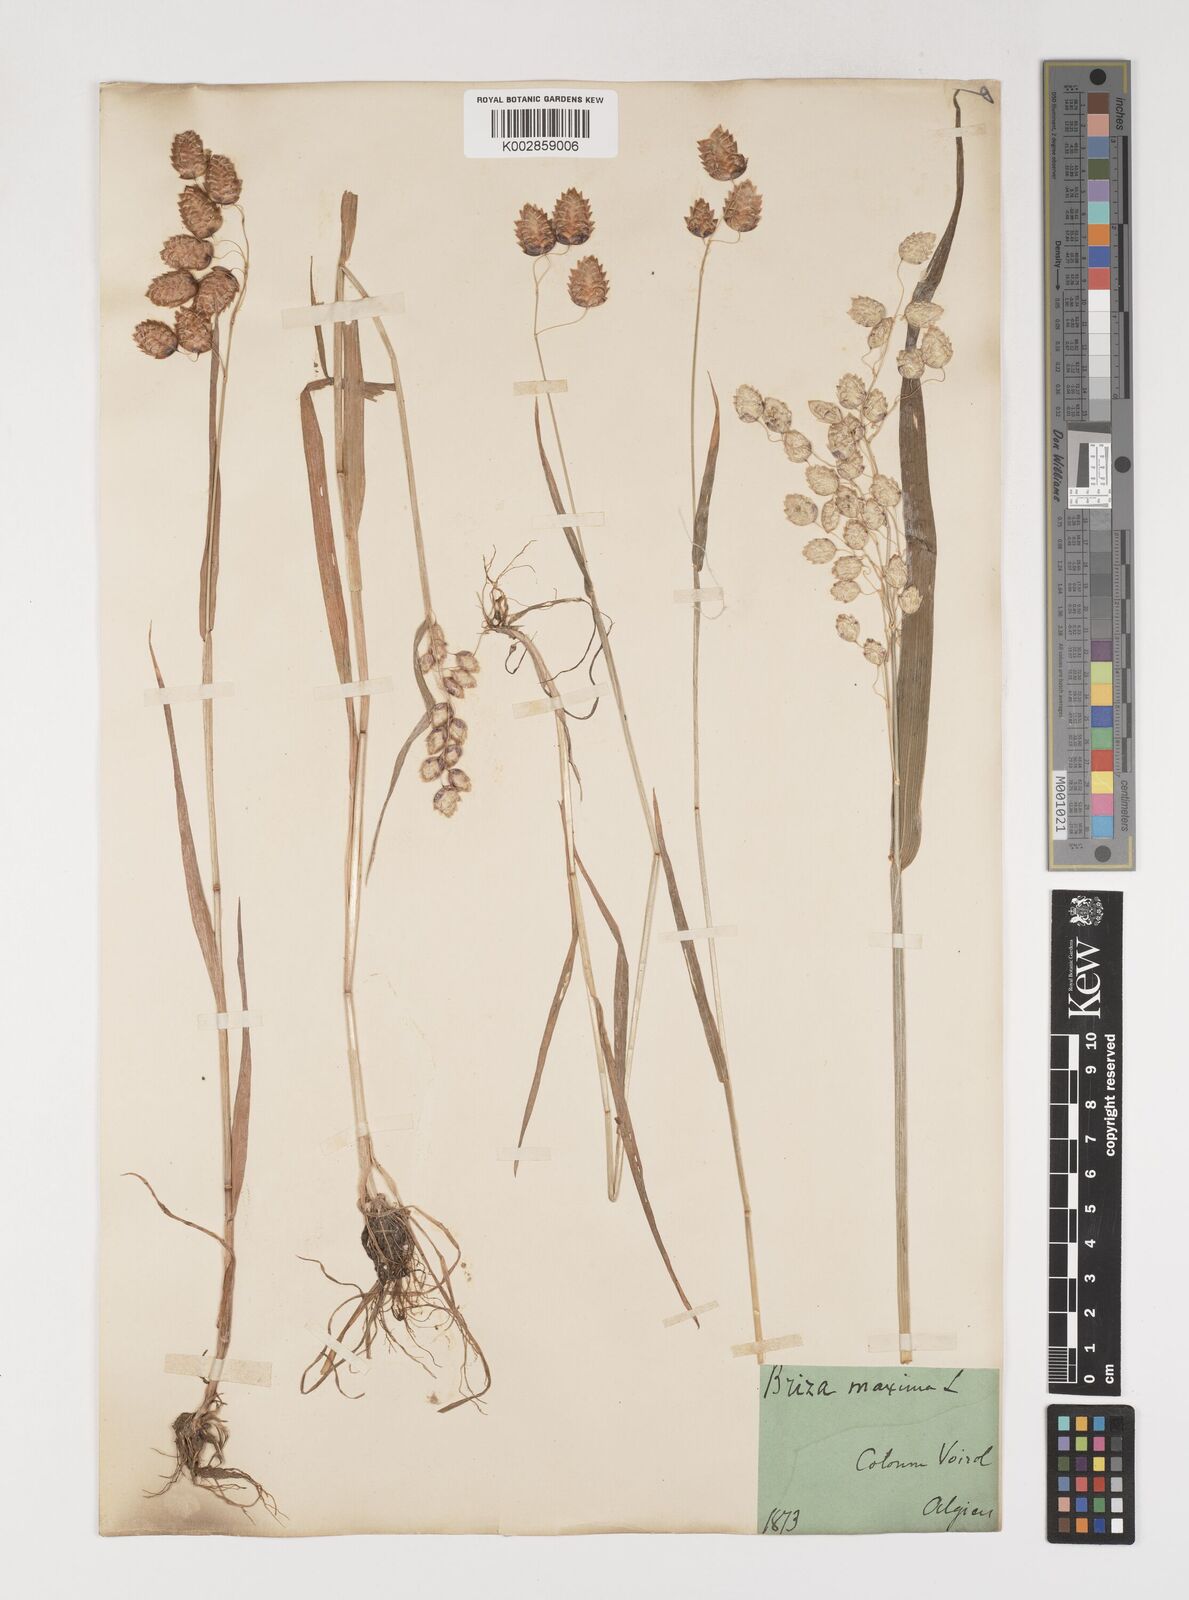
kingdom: Plantae
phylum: Tracheophyta
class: Liliopsida
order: Poales
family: Poaceae
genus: Briza
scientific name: Briza maxima
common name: Big quakinggrass
